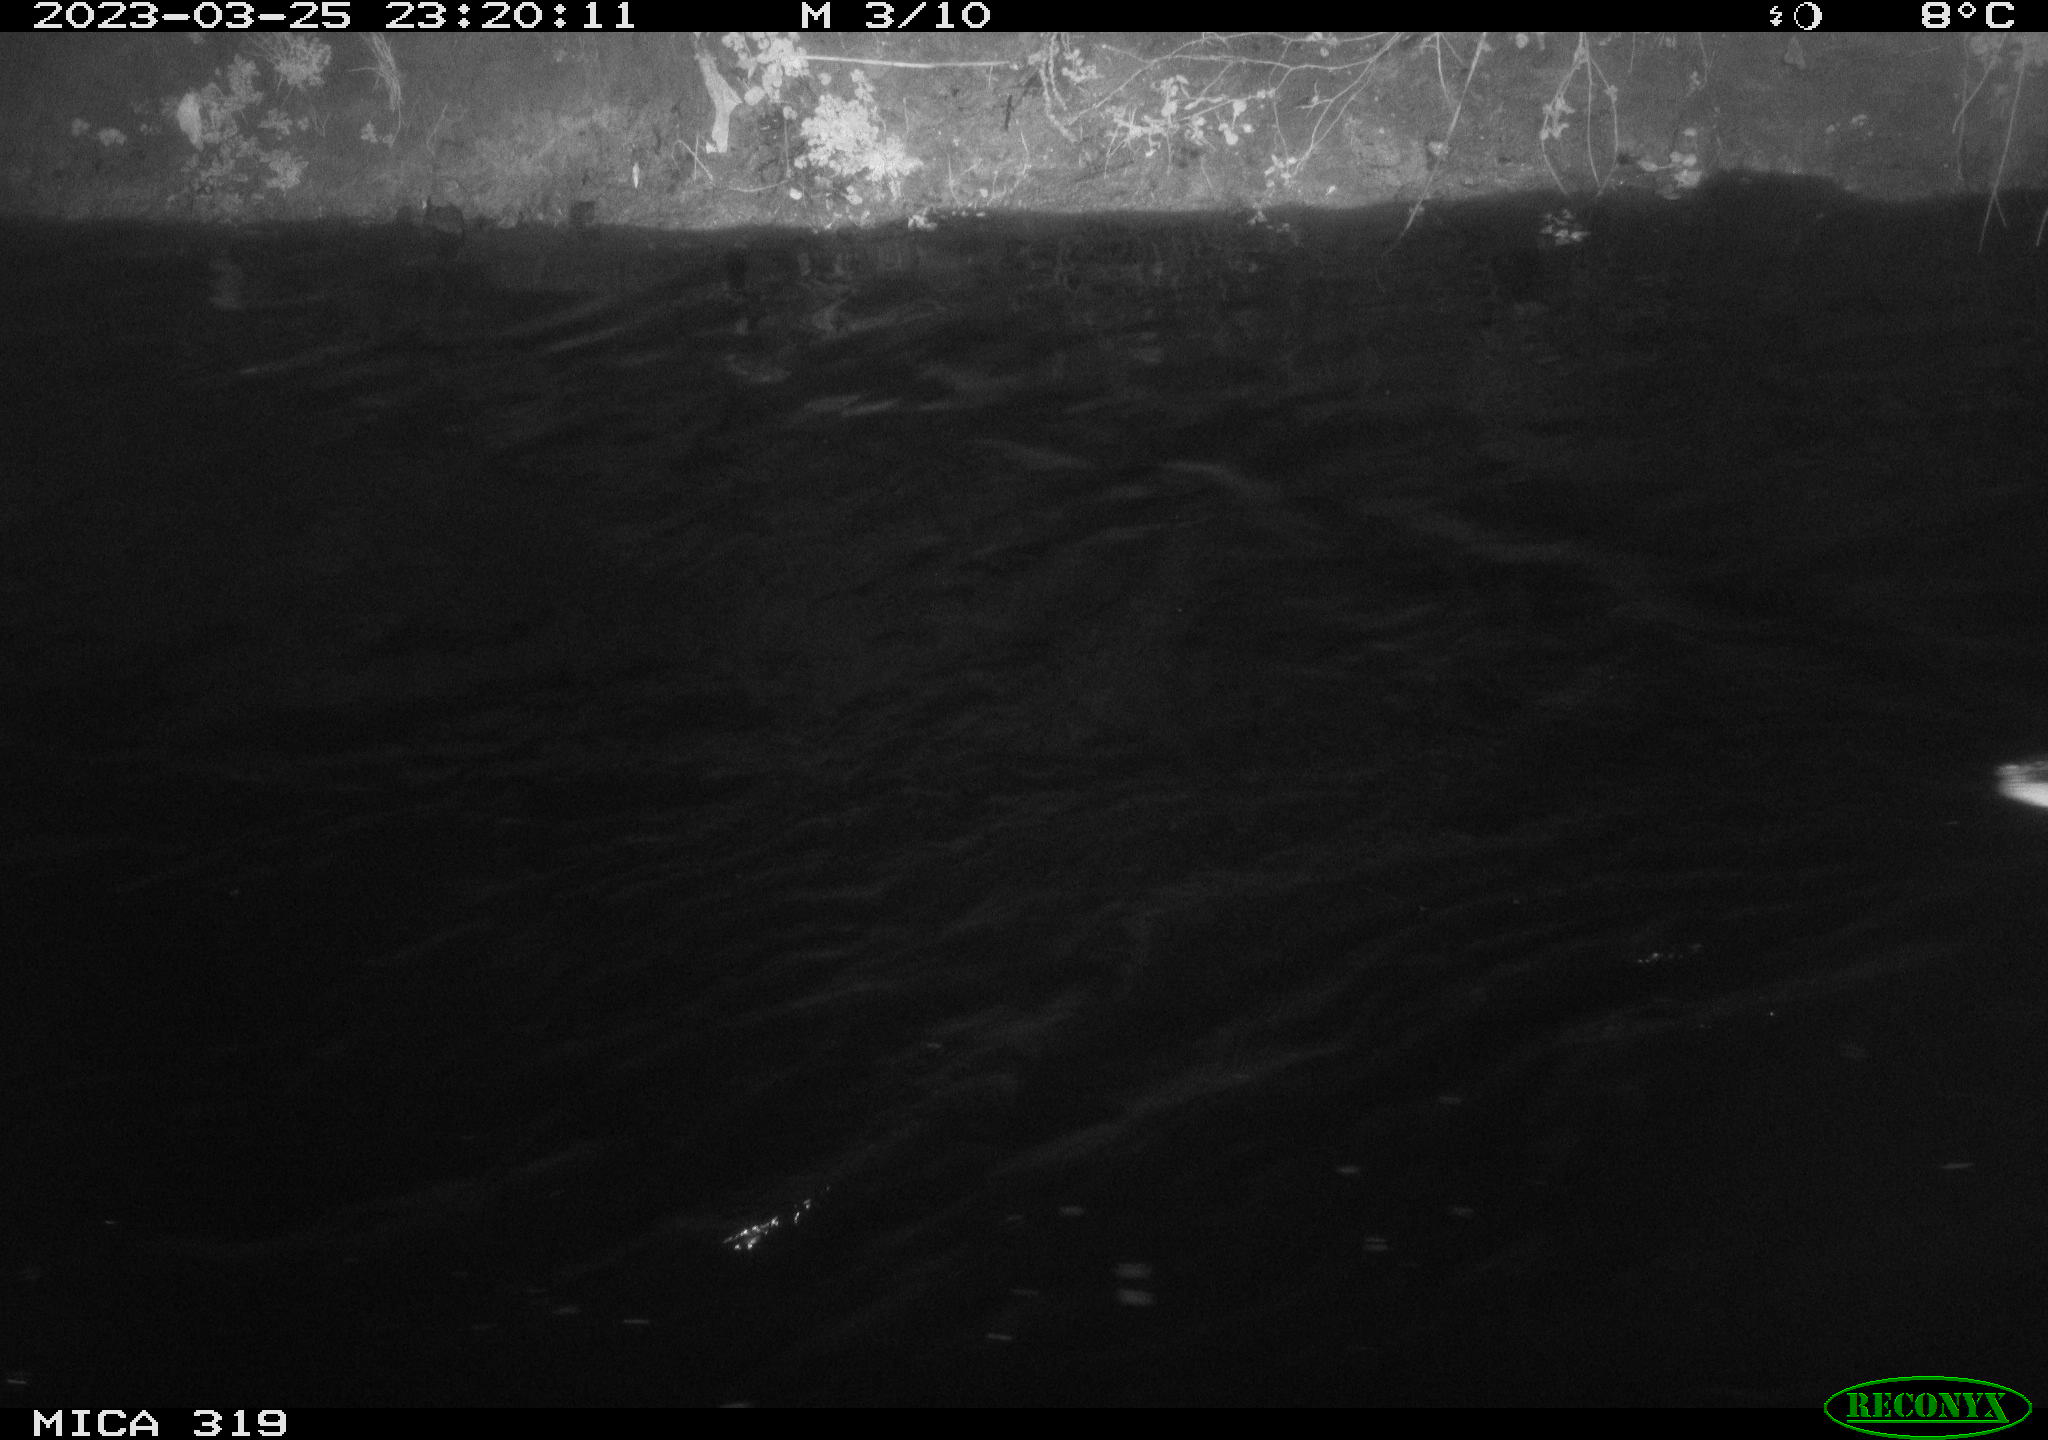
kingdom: Animalia
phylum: Chordata
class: Aves
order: Anseriformes
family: Anatidae
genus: Anas
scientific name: Anas
